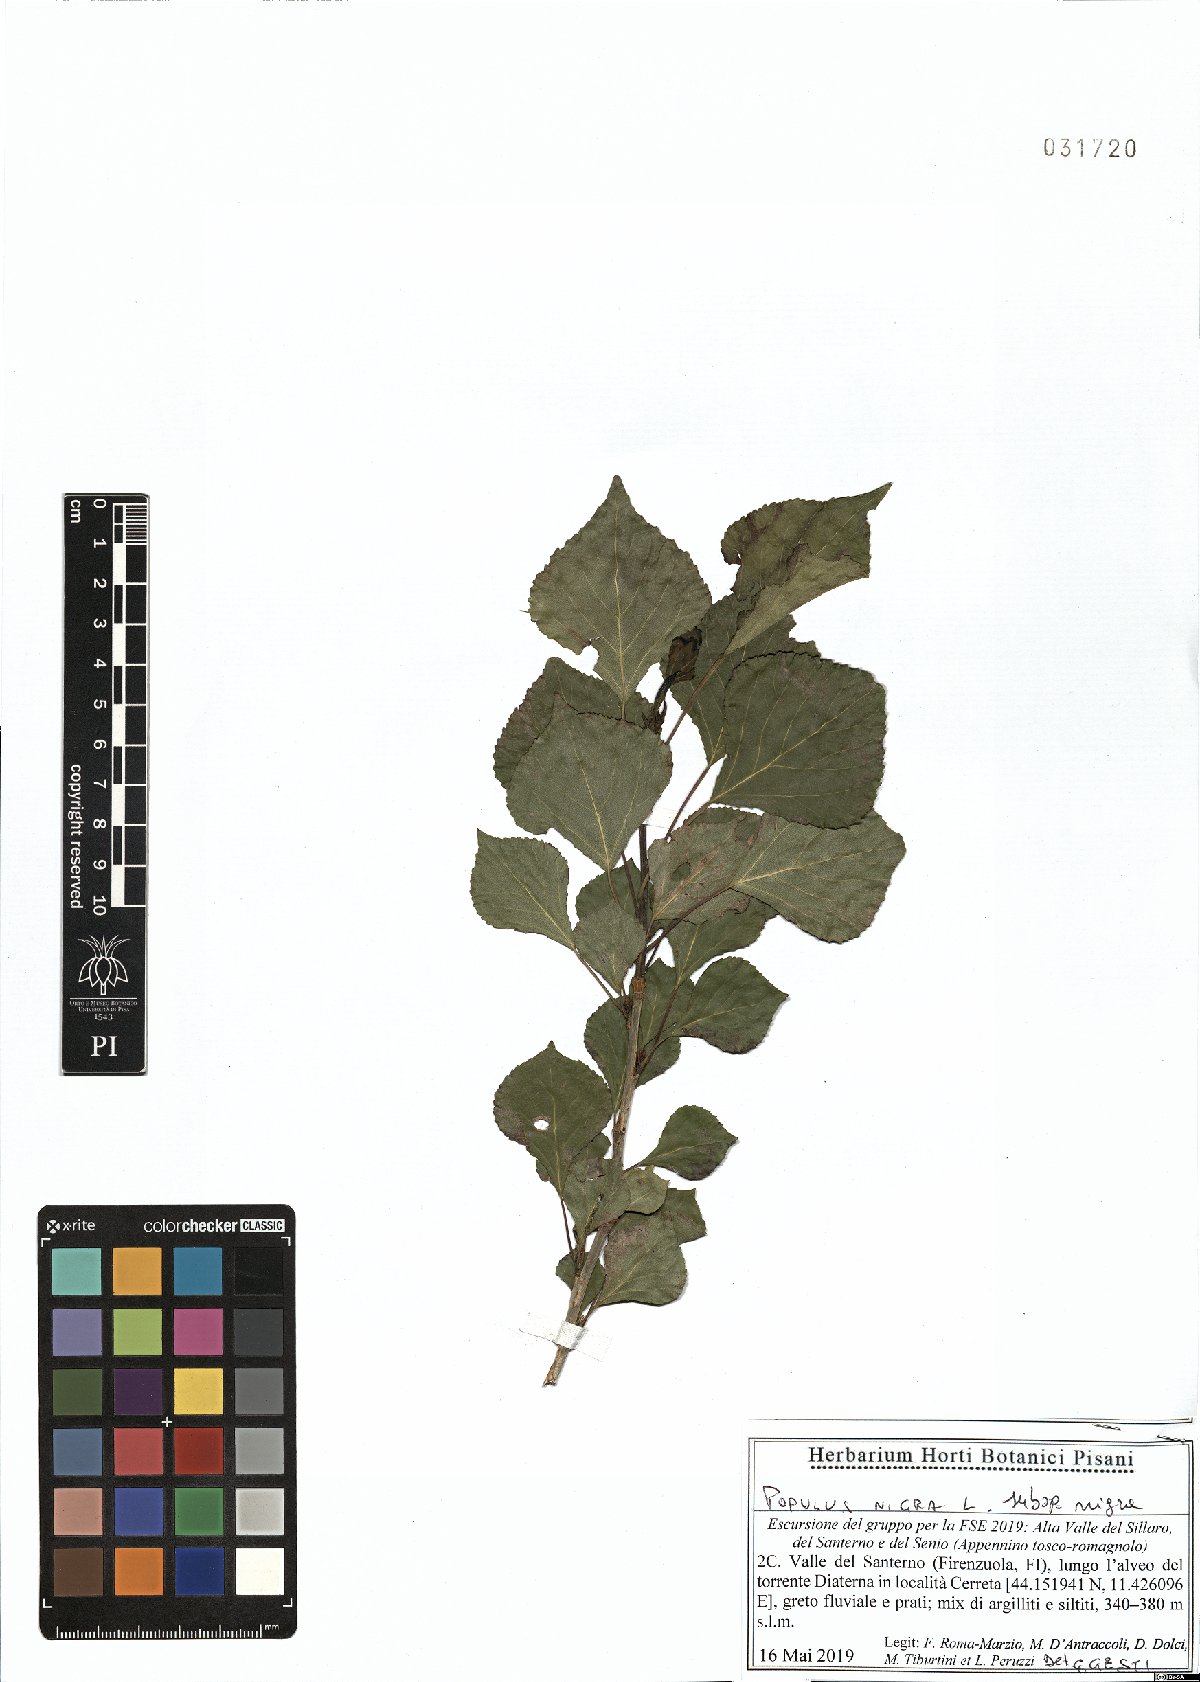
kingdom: Plantae
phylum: Tracheophyta
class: Magnoliopsida
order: Malpighiales
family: Salicaceae
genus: Populus
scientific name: Populus nigra
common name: Black poplar
